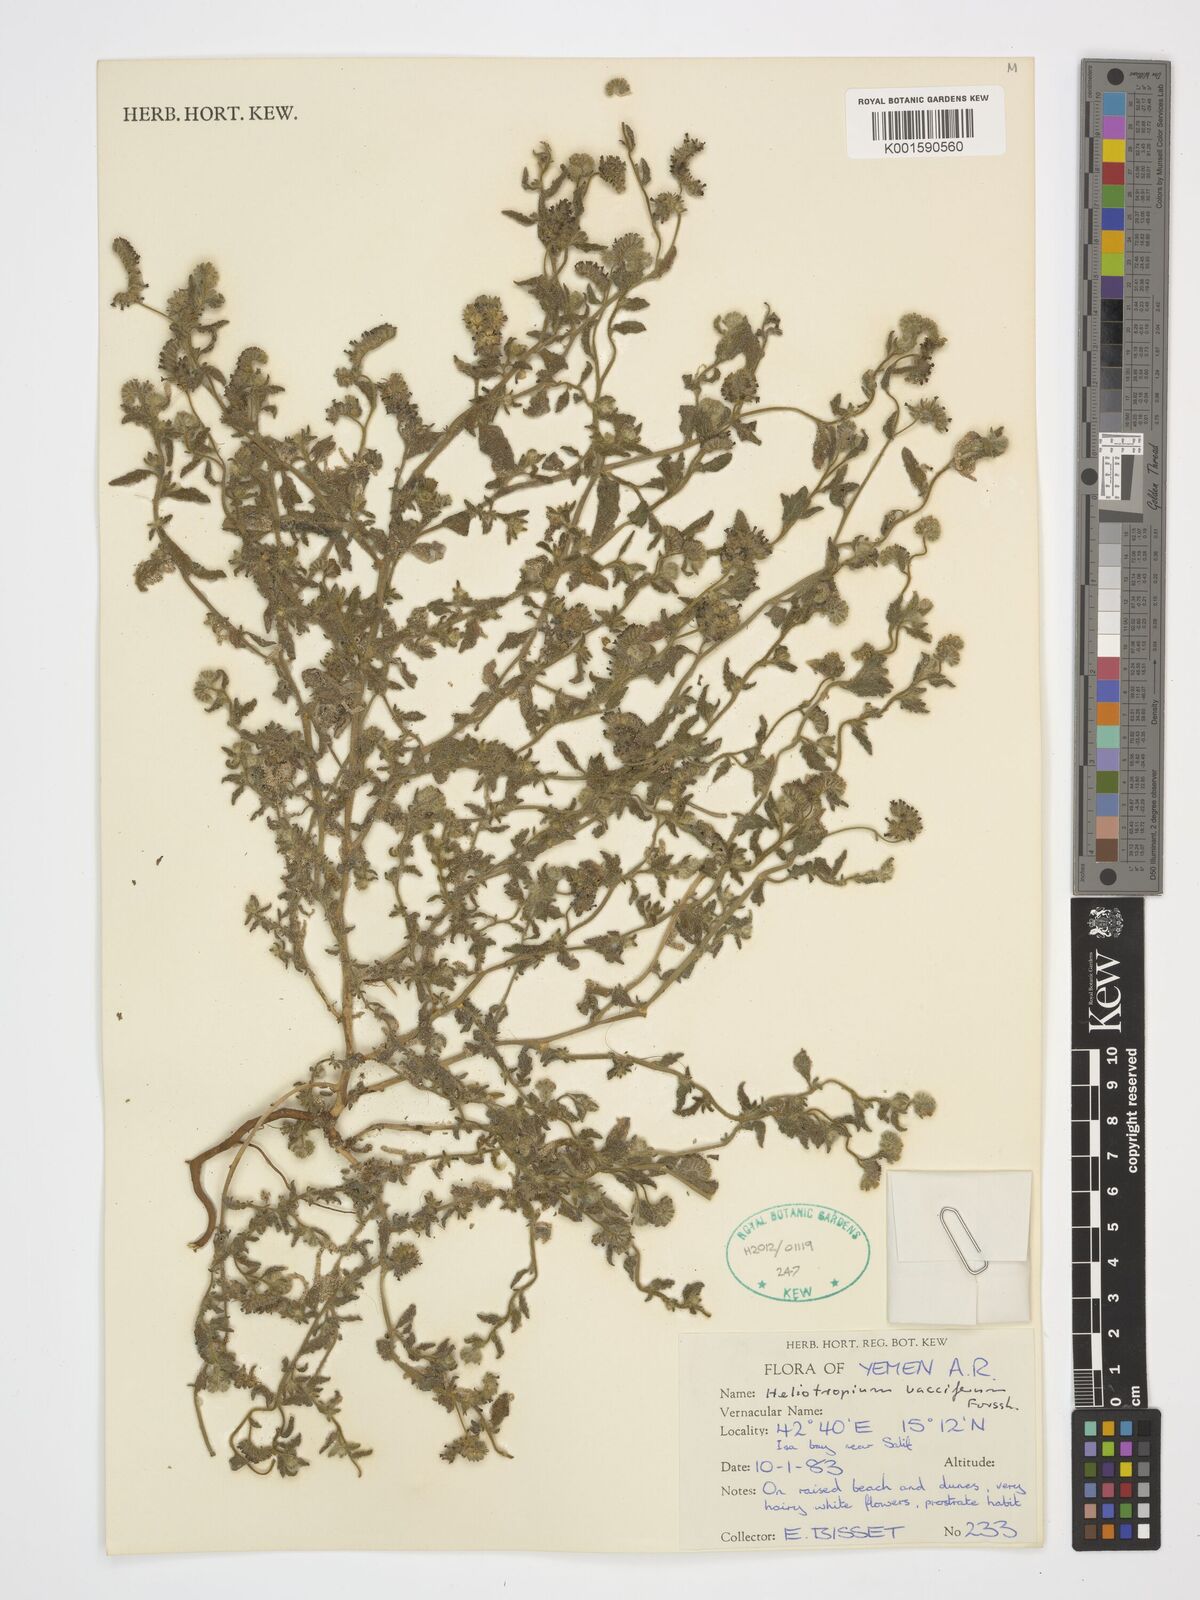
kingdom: Plantae
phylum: Tracheophyta
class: Magnoliopsida
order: Boraginales
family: Heliotropiaceae
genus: Heliotropium
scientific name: Heliotropium bacciferum
